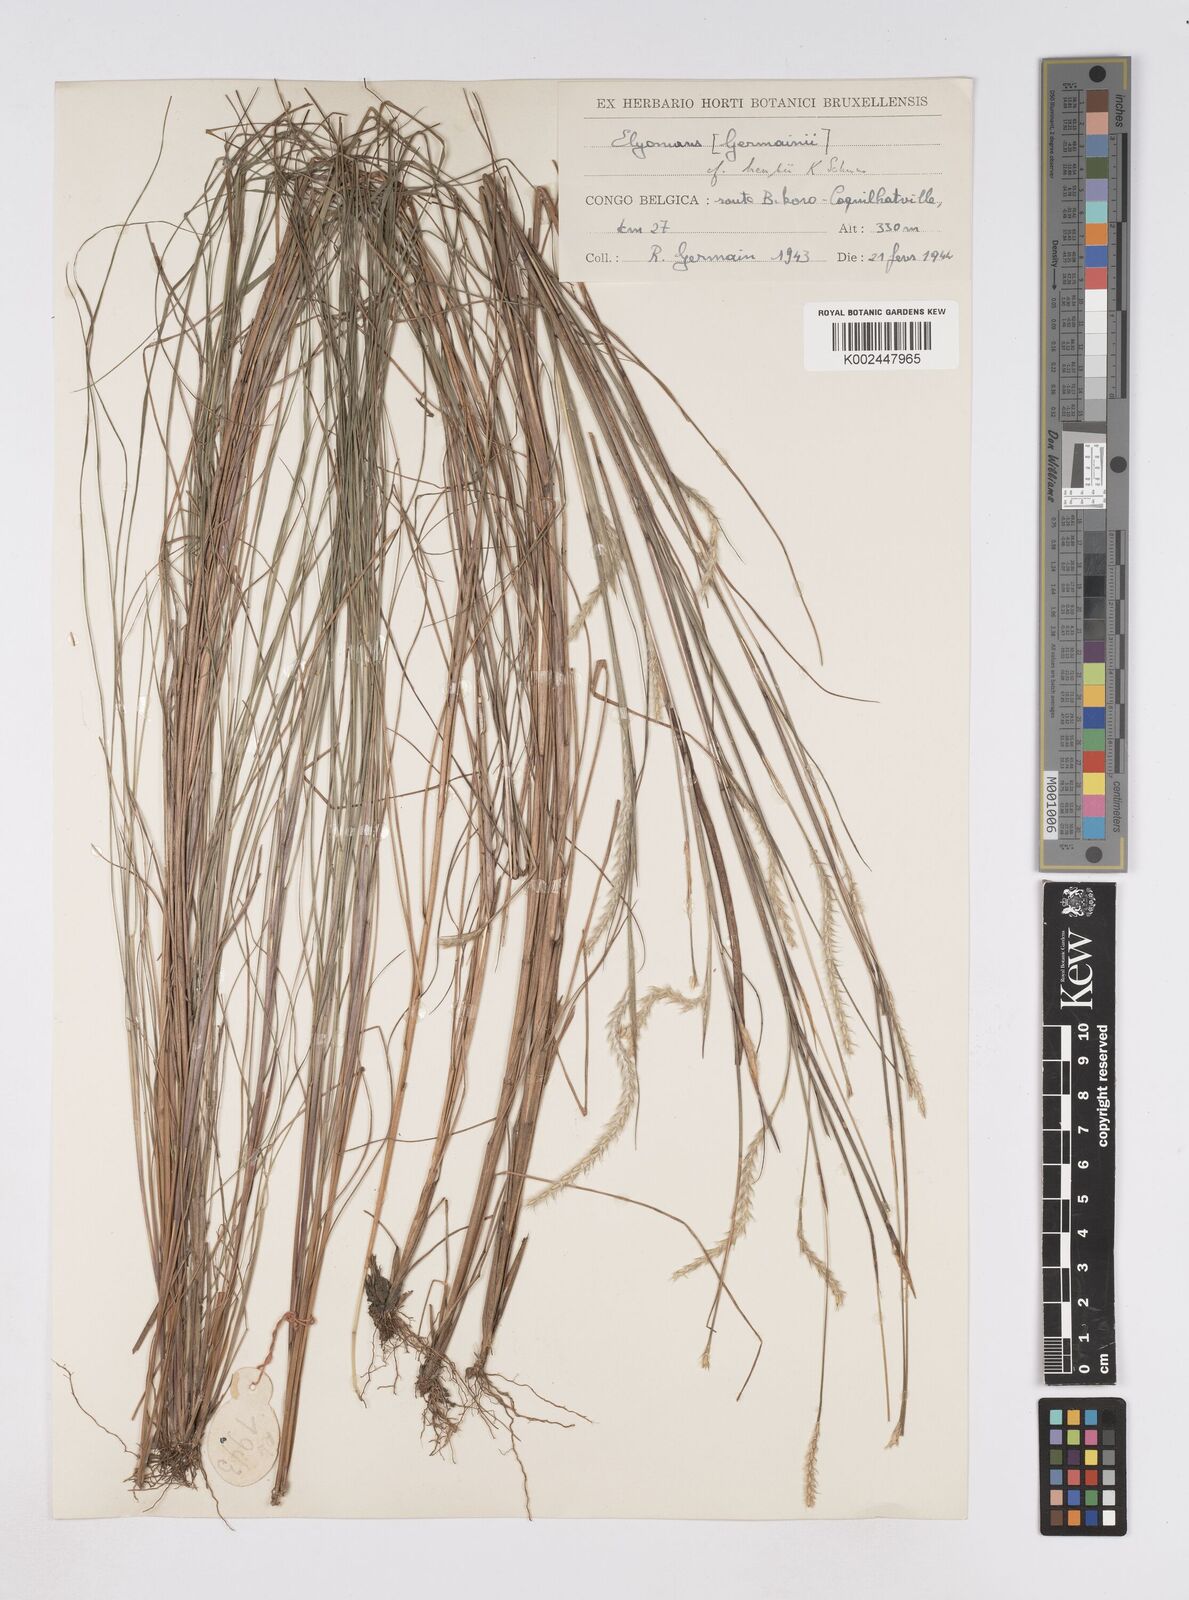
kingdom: Plantae
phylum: Tracheophyta
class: Liliopsida
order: Poales
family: Poaceae
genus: Elionurus
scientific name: Elionurus hensii
